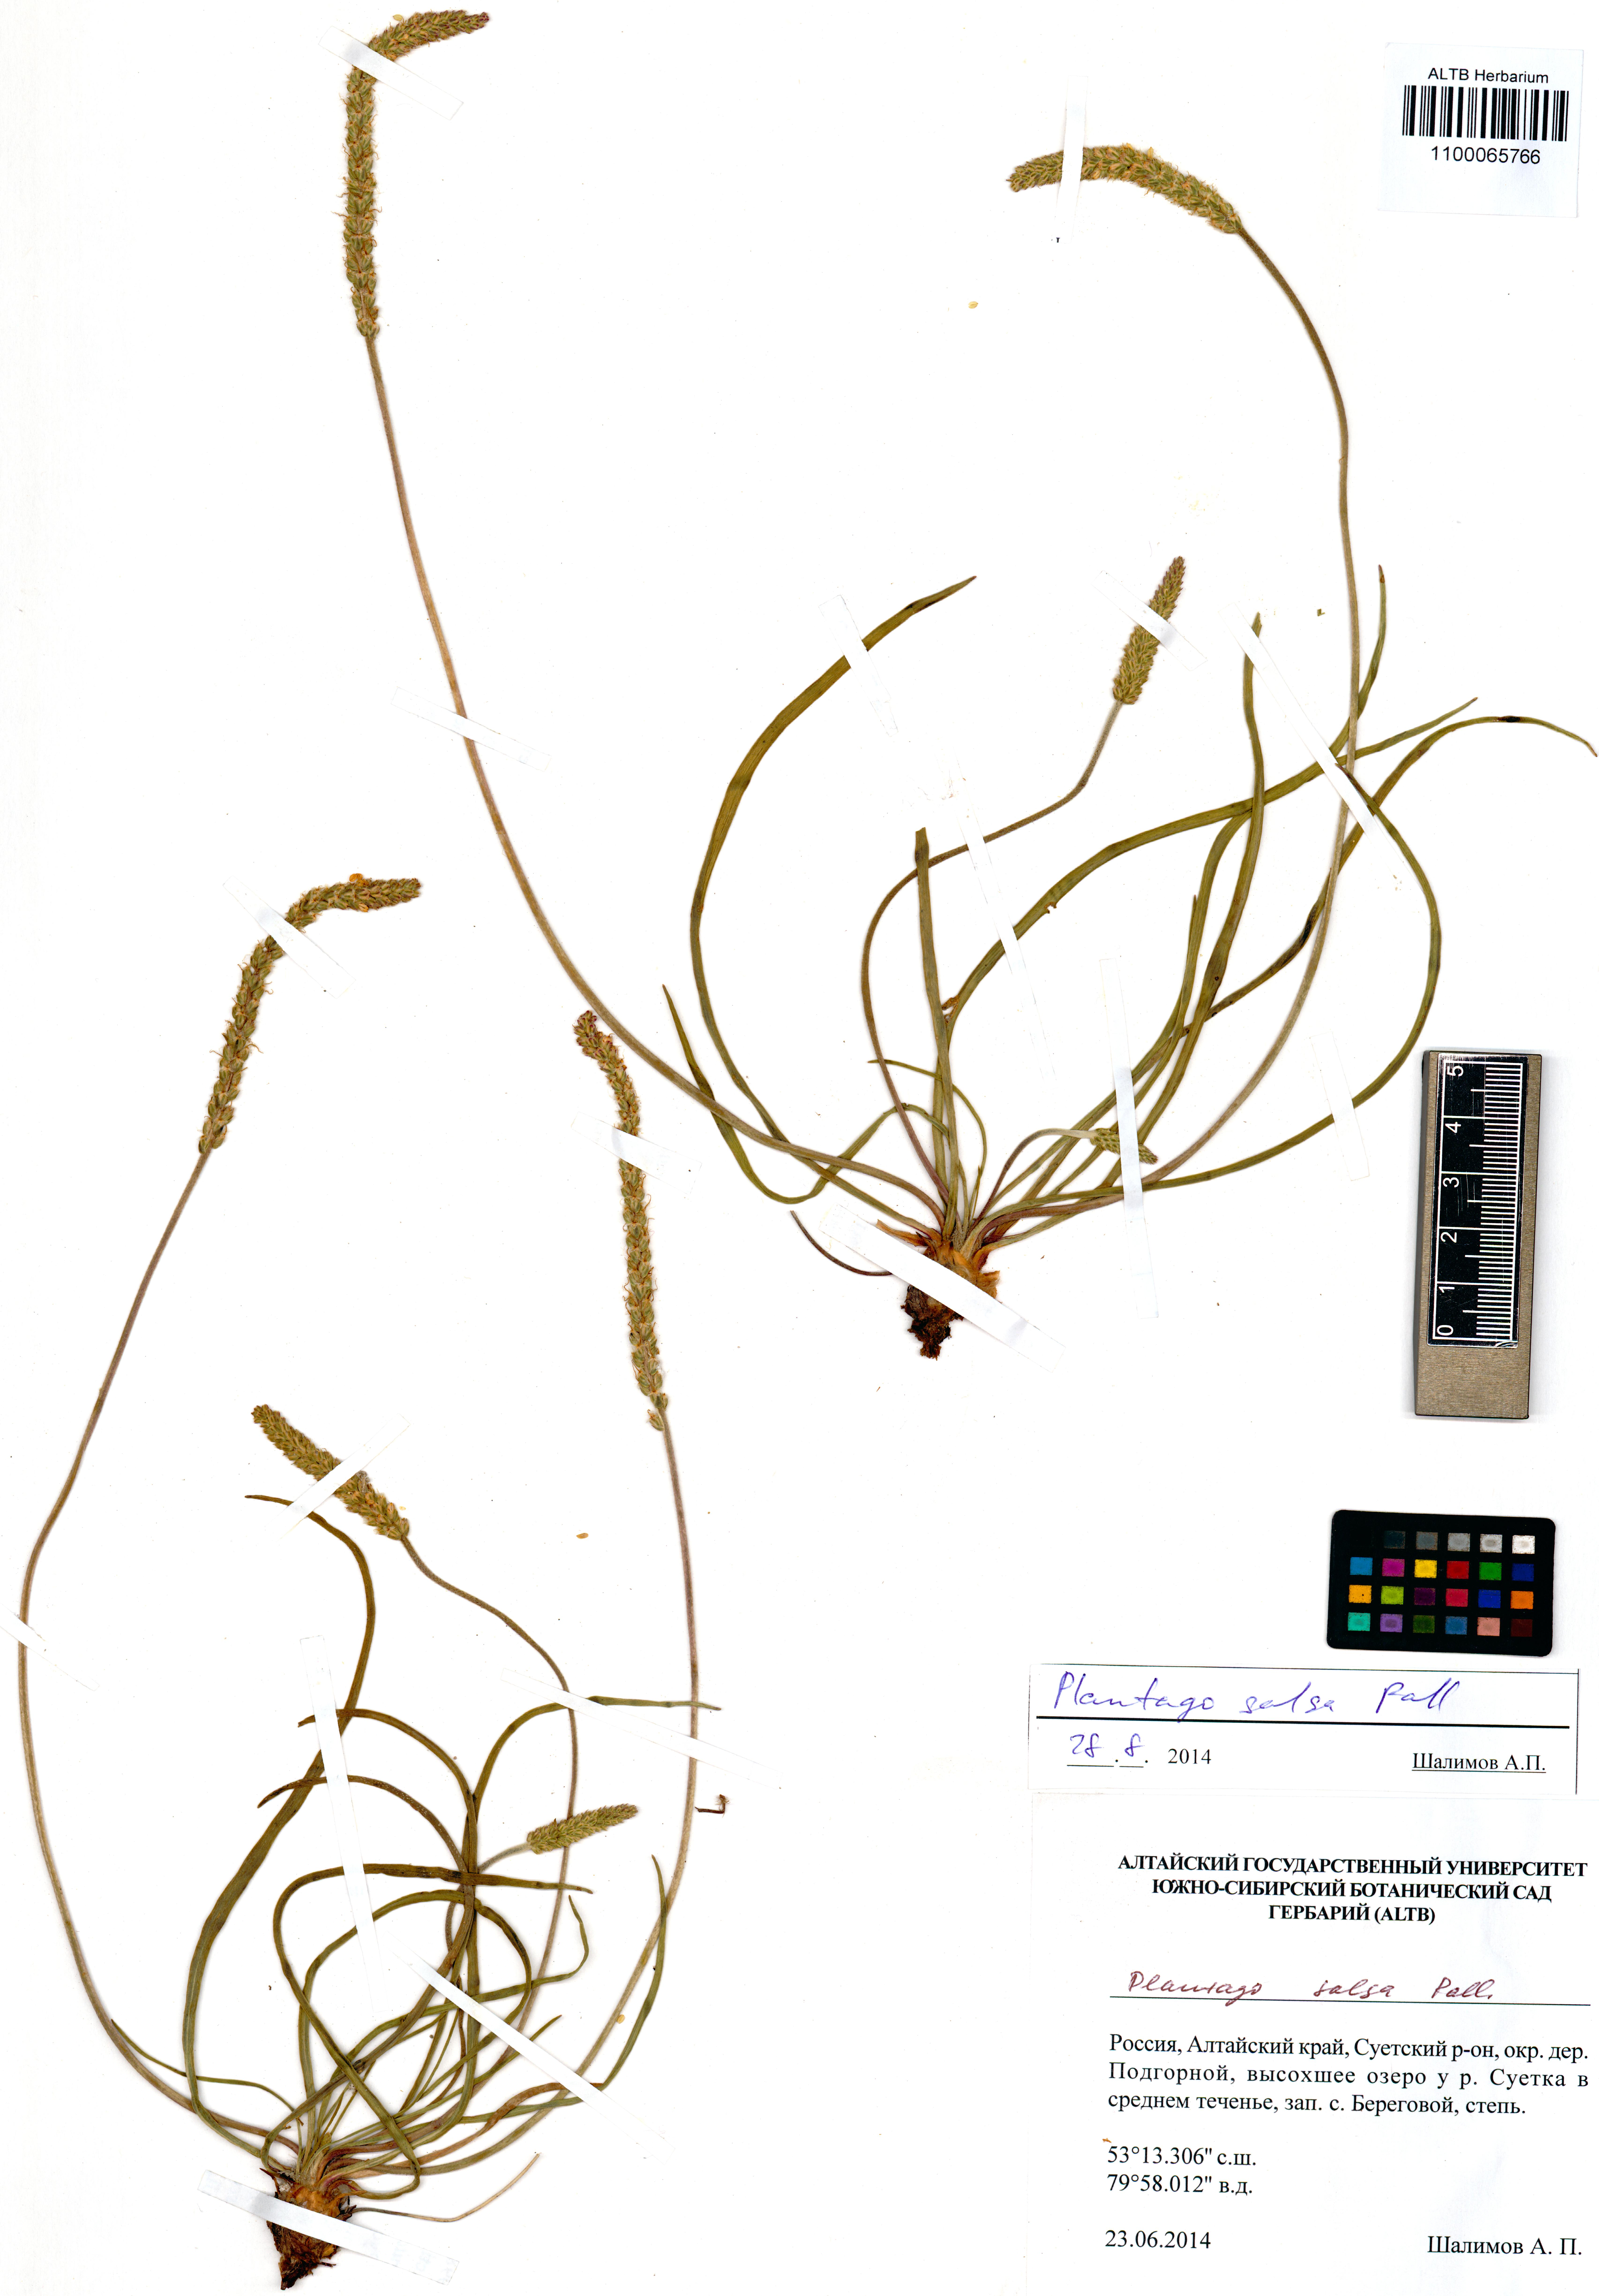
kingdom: Plantae
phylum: Tracheophyta
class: Magnoliopsida
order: Lamiales
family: Plantaginaceae
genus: Plantago
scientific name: Plantago salsa
